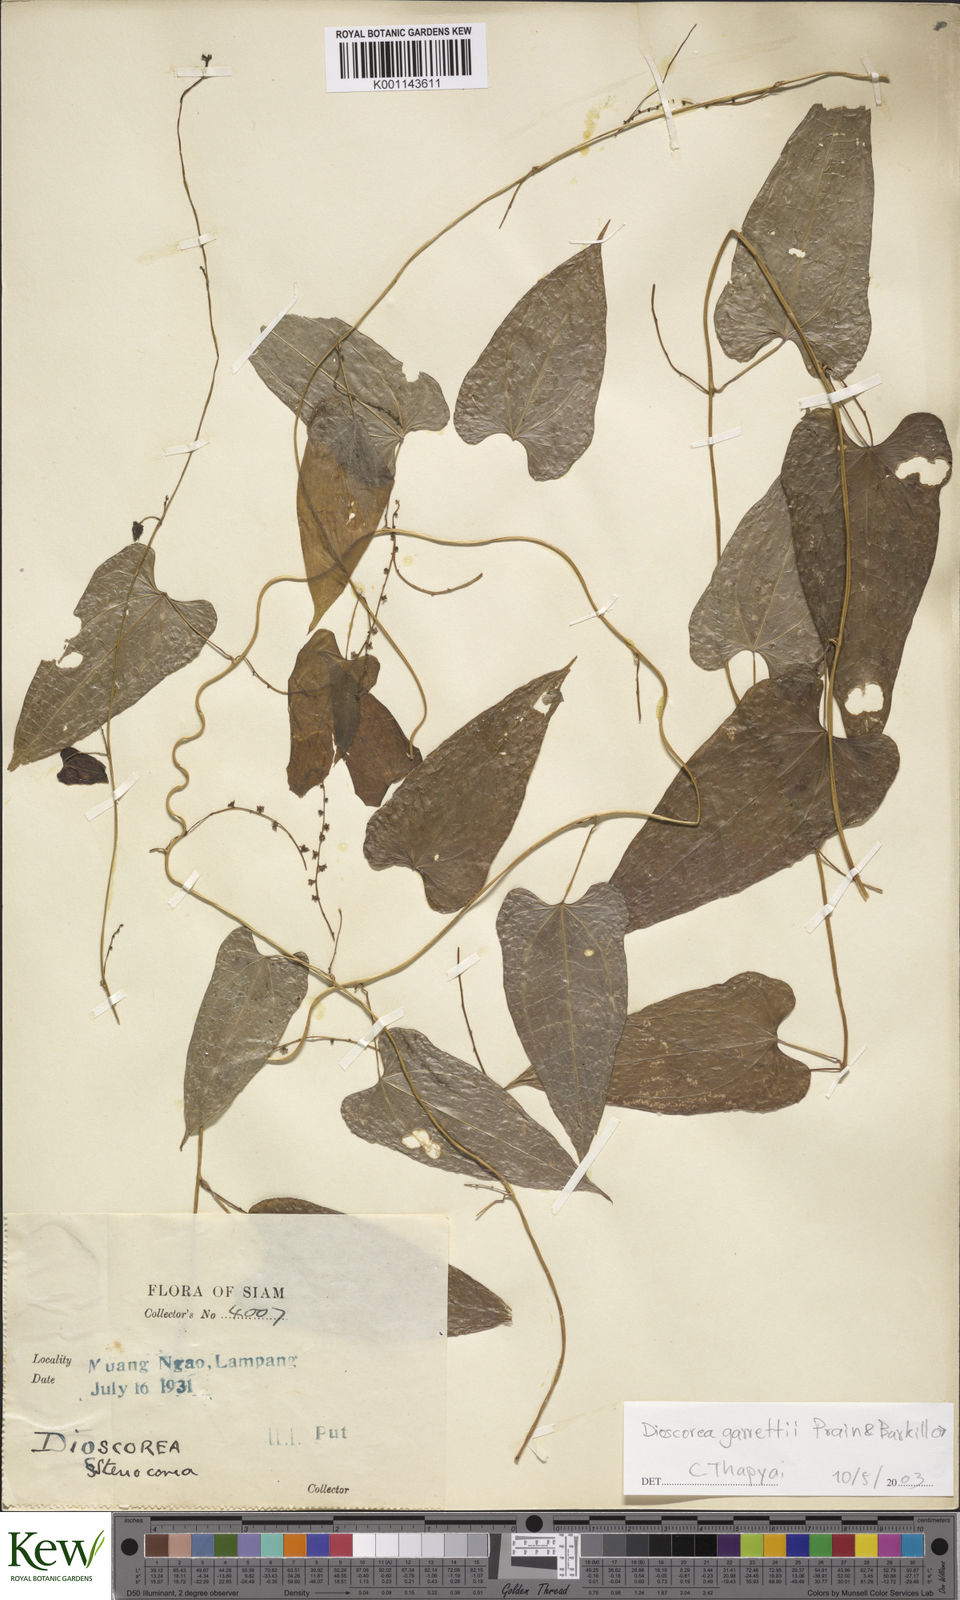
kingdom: Plantae
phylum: Tracheophyta
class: Liliopsida
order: Dioscoreales
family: Dioscoreaceae
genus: Dioscorea
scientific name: Dioscorea garrettii
